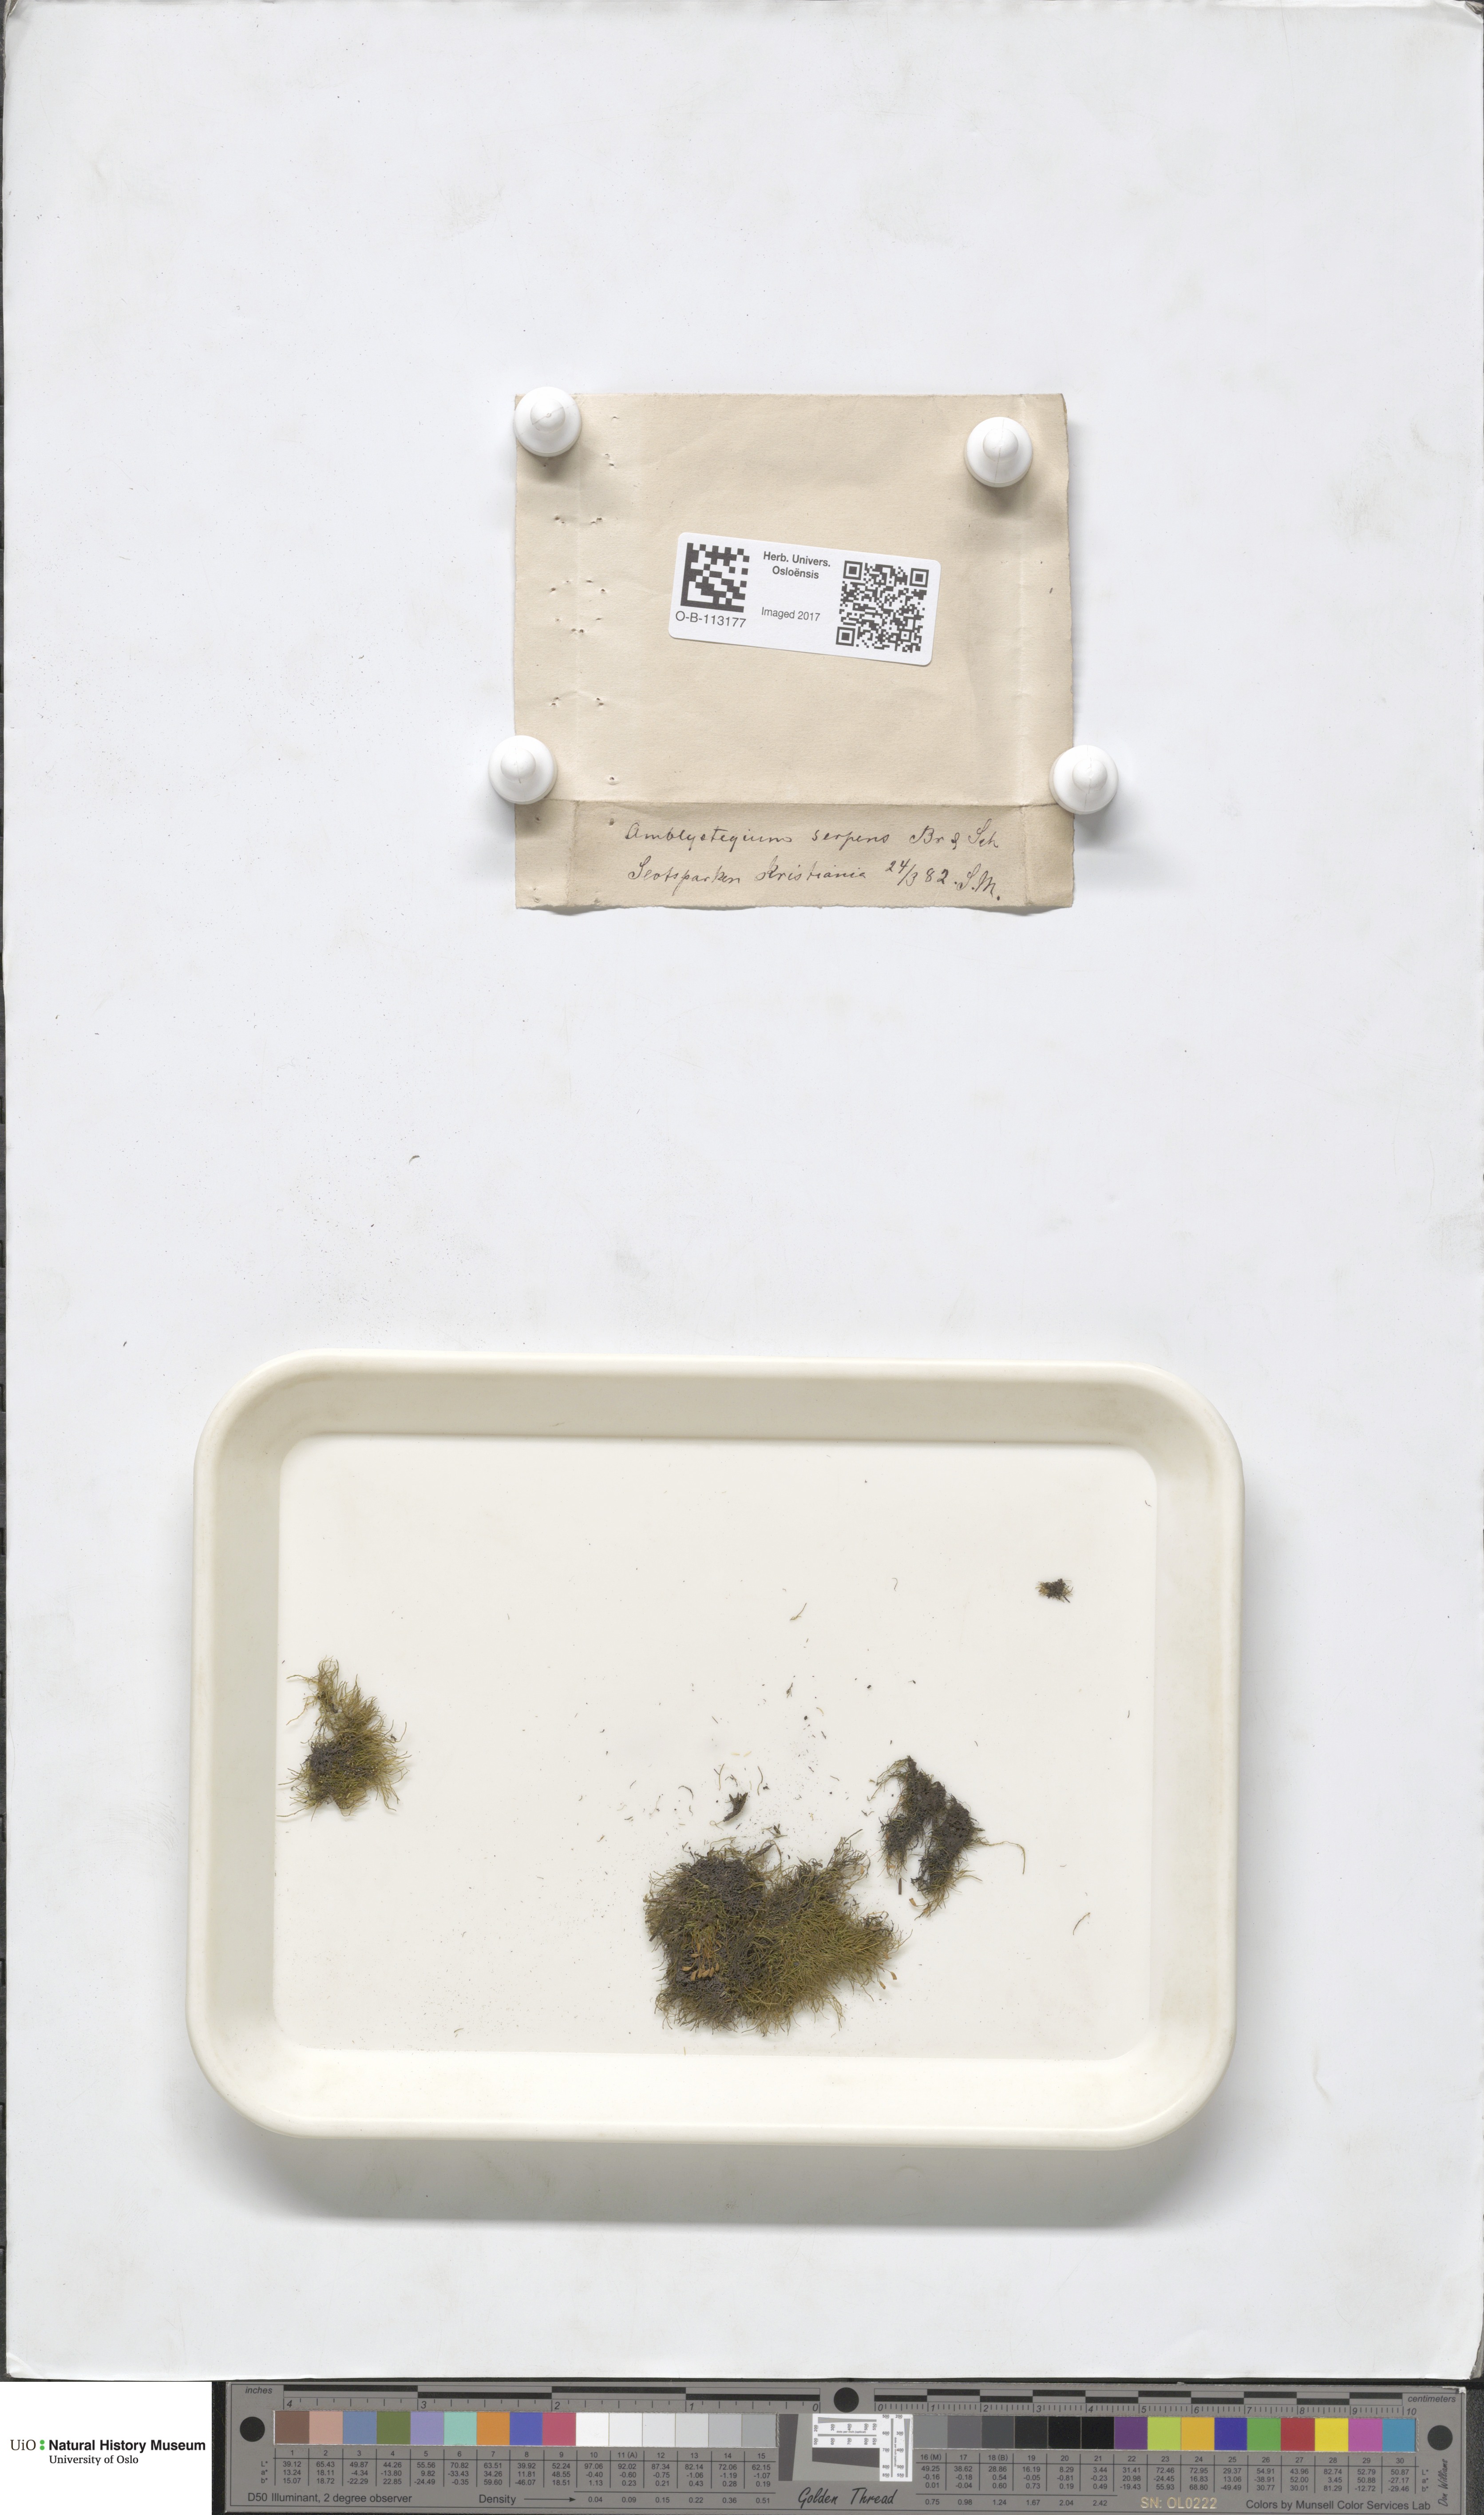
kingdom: Plantae
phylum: Bryophyta
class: Bryopsida
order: Hypnales
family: Amblystegiaceae
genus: Amblystegium
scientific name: Amblystegium serpens
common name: Jurkatzka's feather moss
